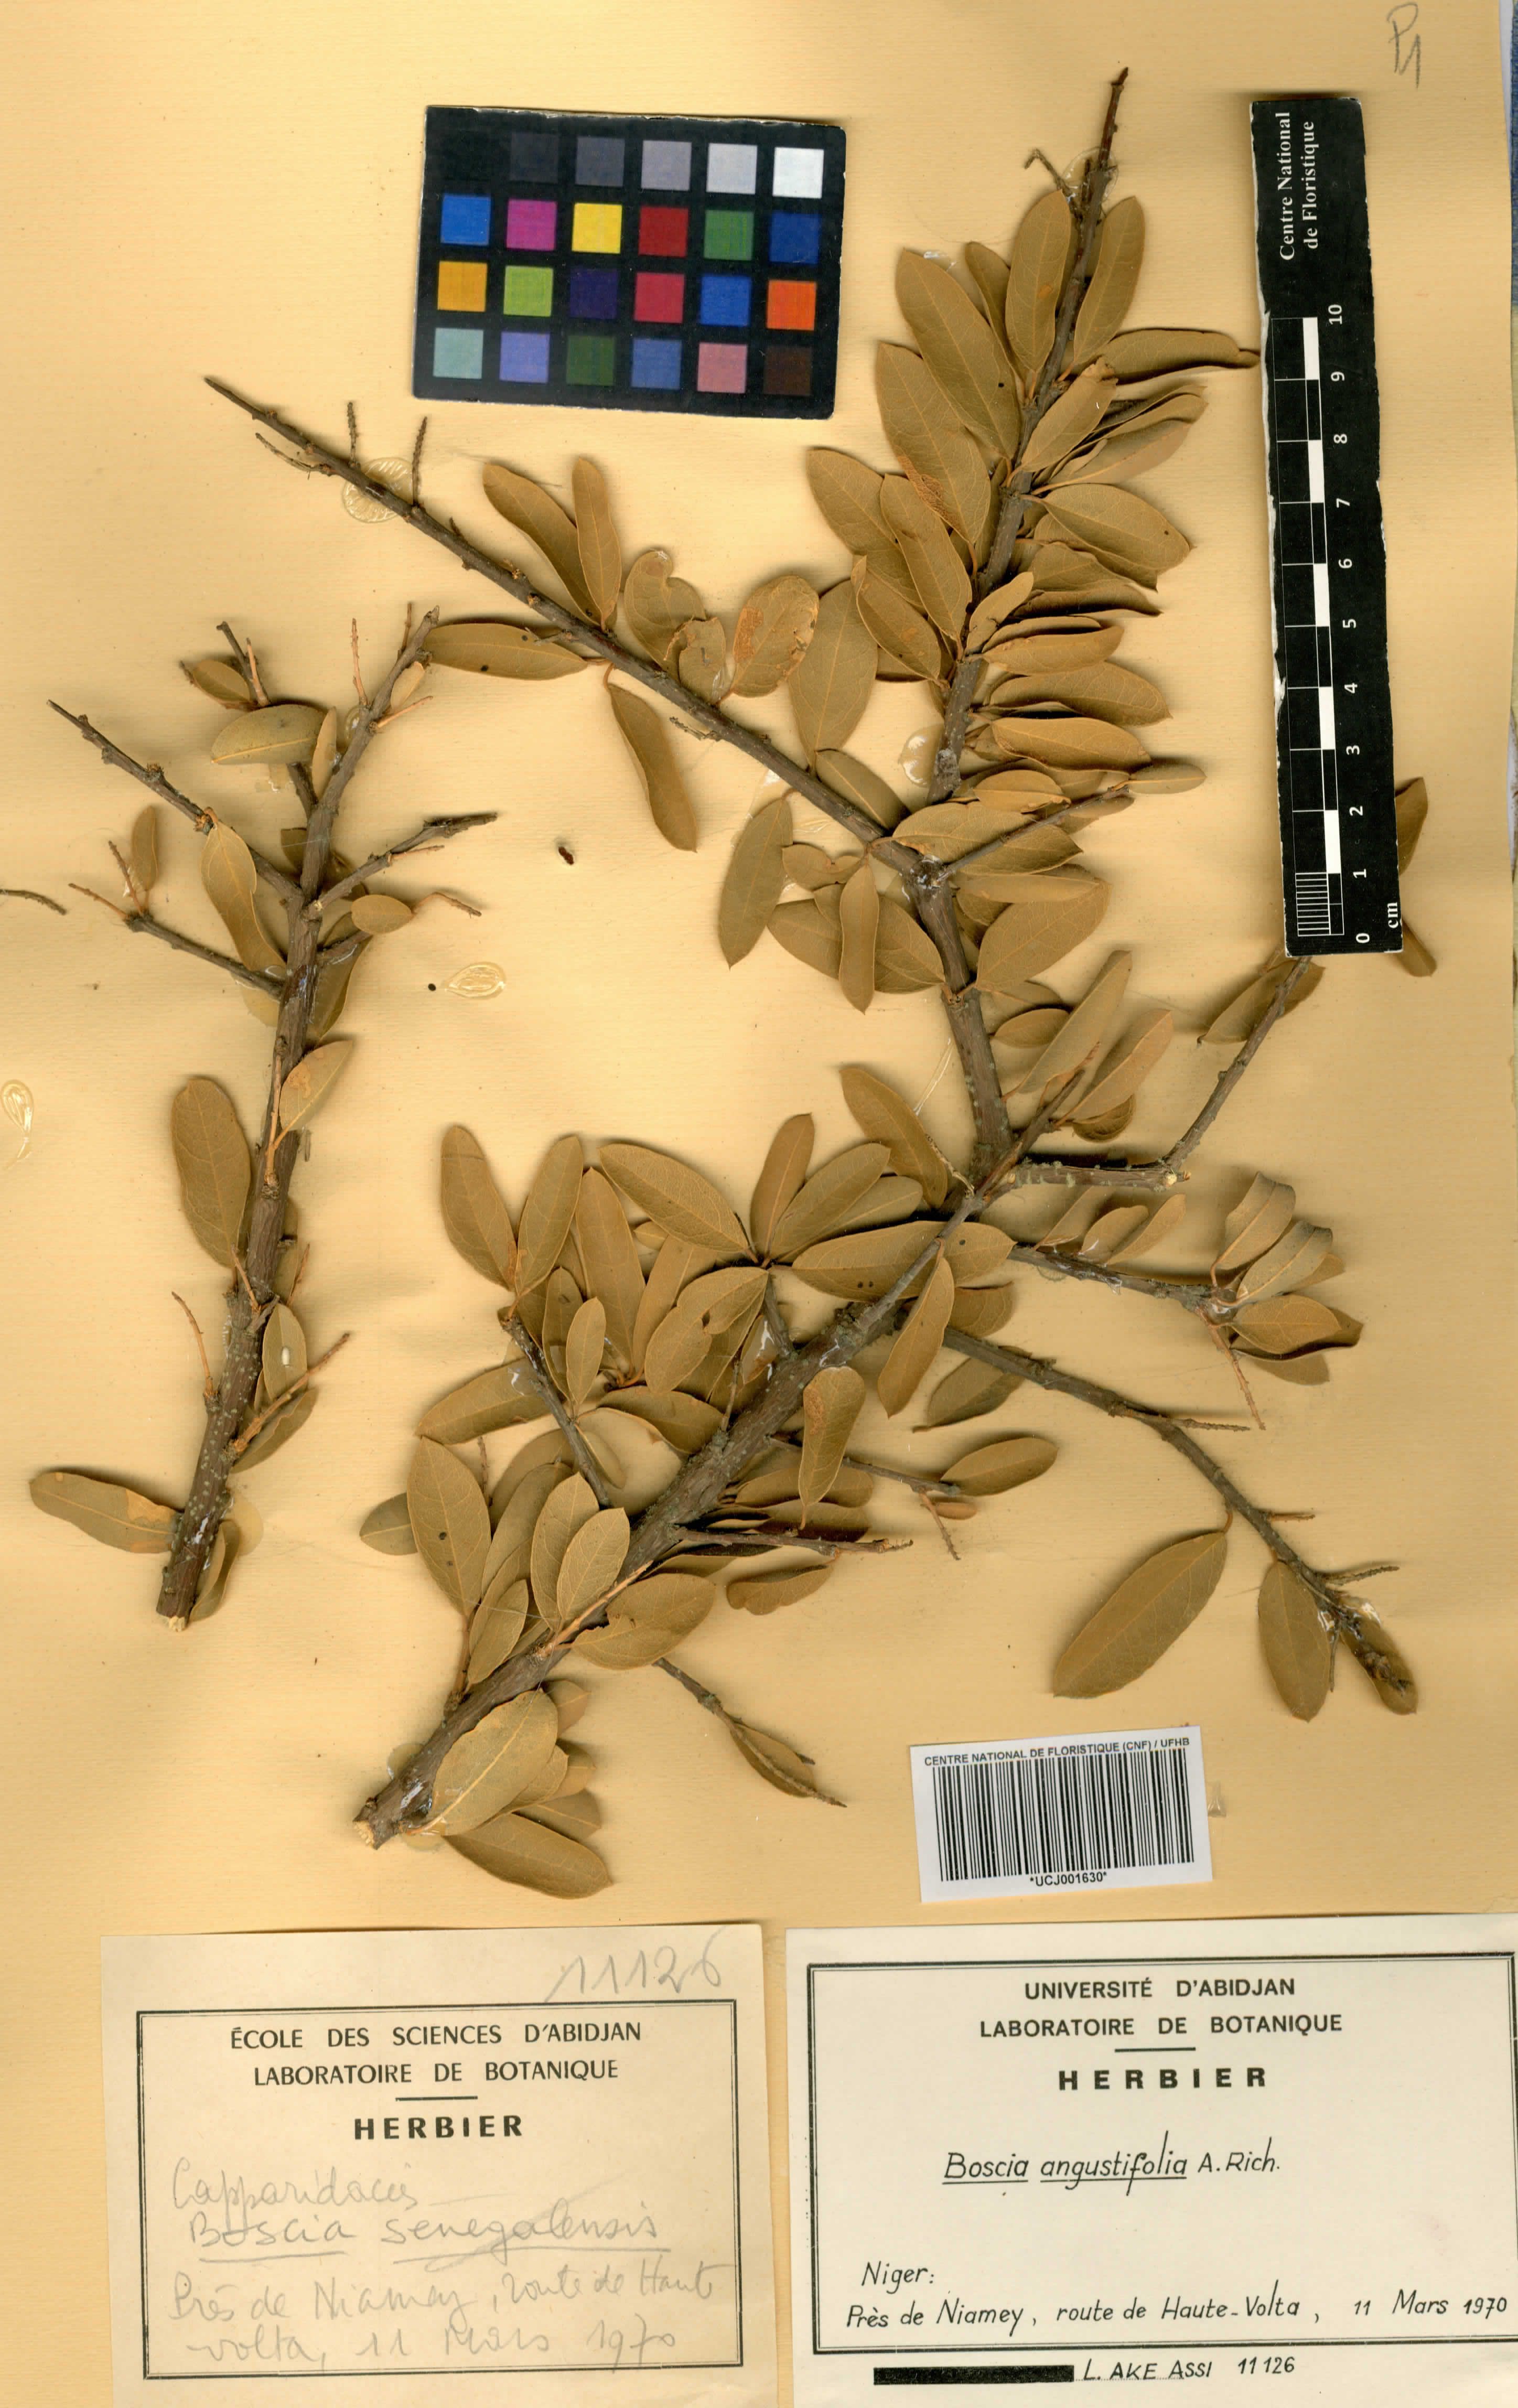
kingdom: Plantae
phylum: Tracheophyta
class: Magnoliopsida
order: Brassicales
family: Capparaceae
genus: Boscia
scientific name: Boscia angustifolia
